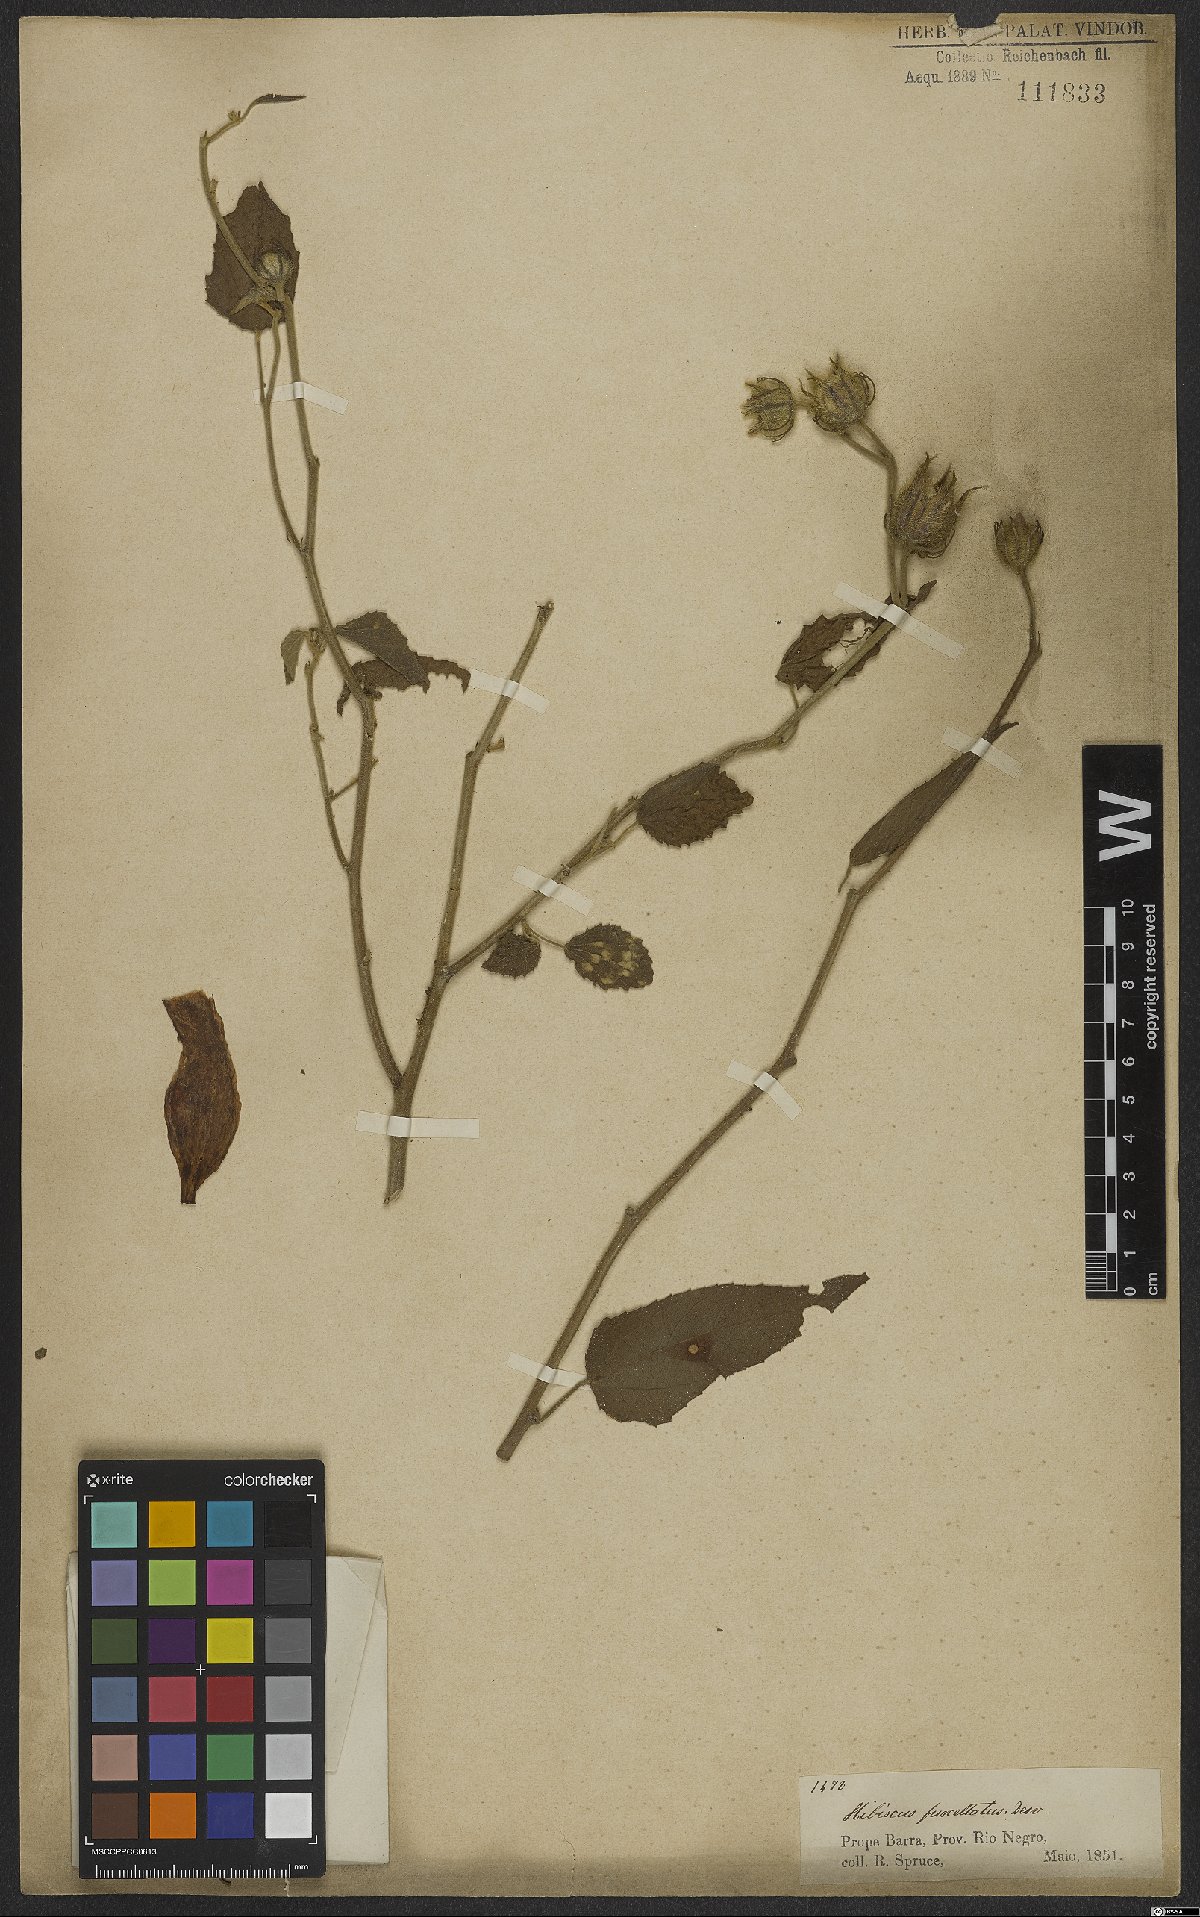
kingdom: Plantae
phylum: Tracheophyta
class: Magnoliopsida
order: Malvales
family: Malvaceae
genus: Hibiscus
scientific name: Hibiscus furcellatus
